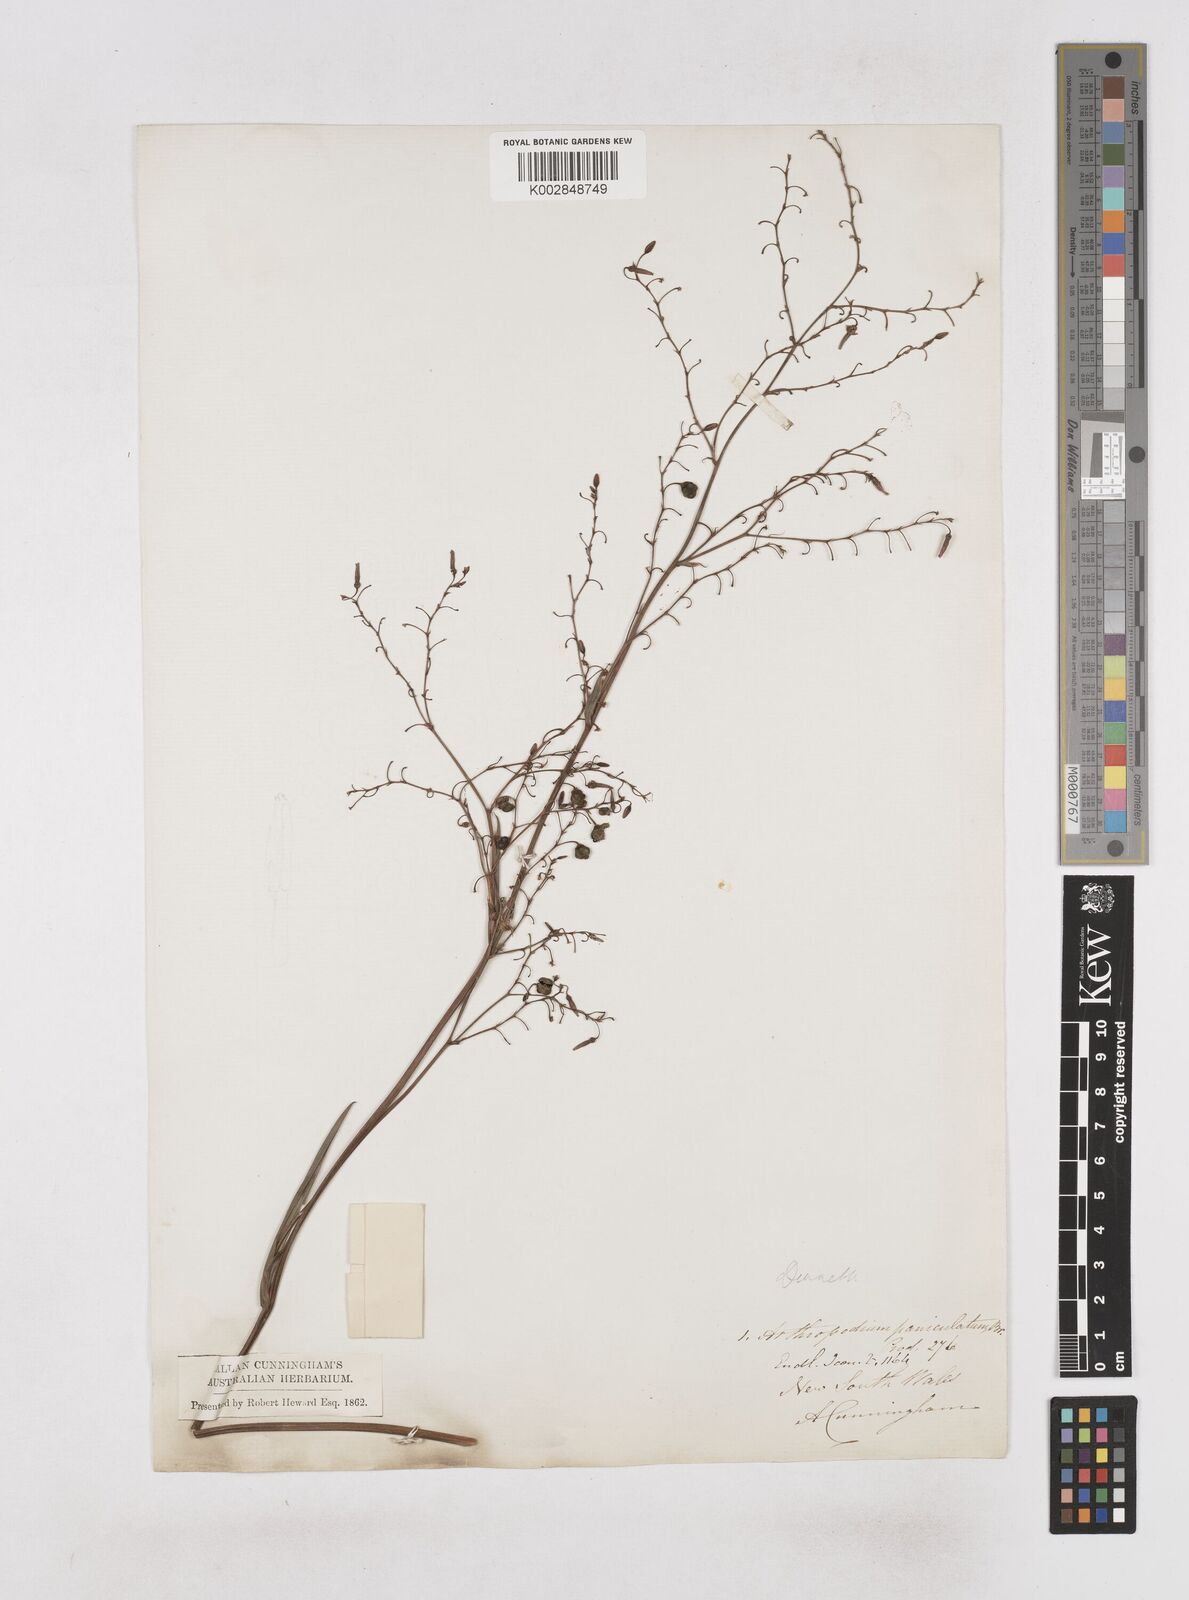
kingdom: Plantae
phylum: Tracheophyta
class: Liliopsida
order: Asparagales
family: Asphodelaceae
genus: Dianella
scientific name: Dianella
